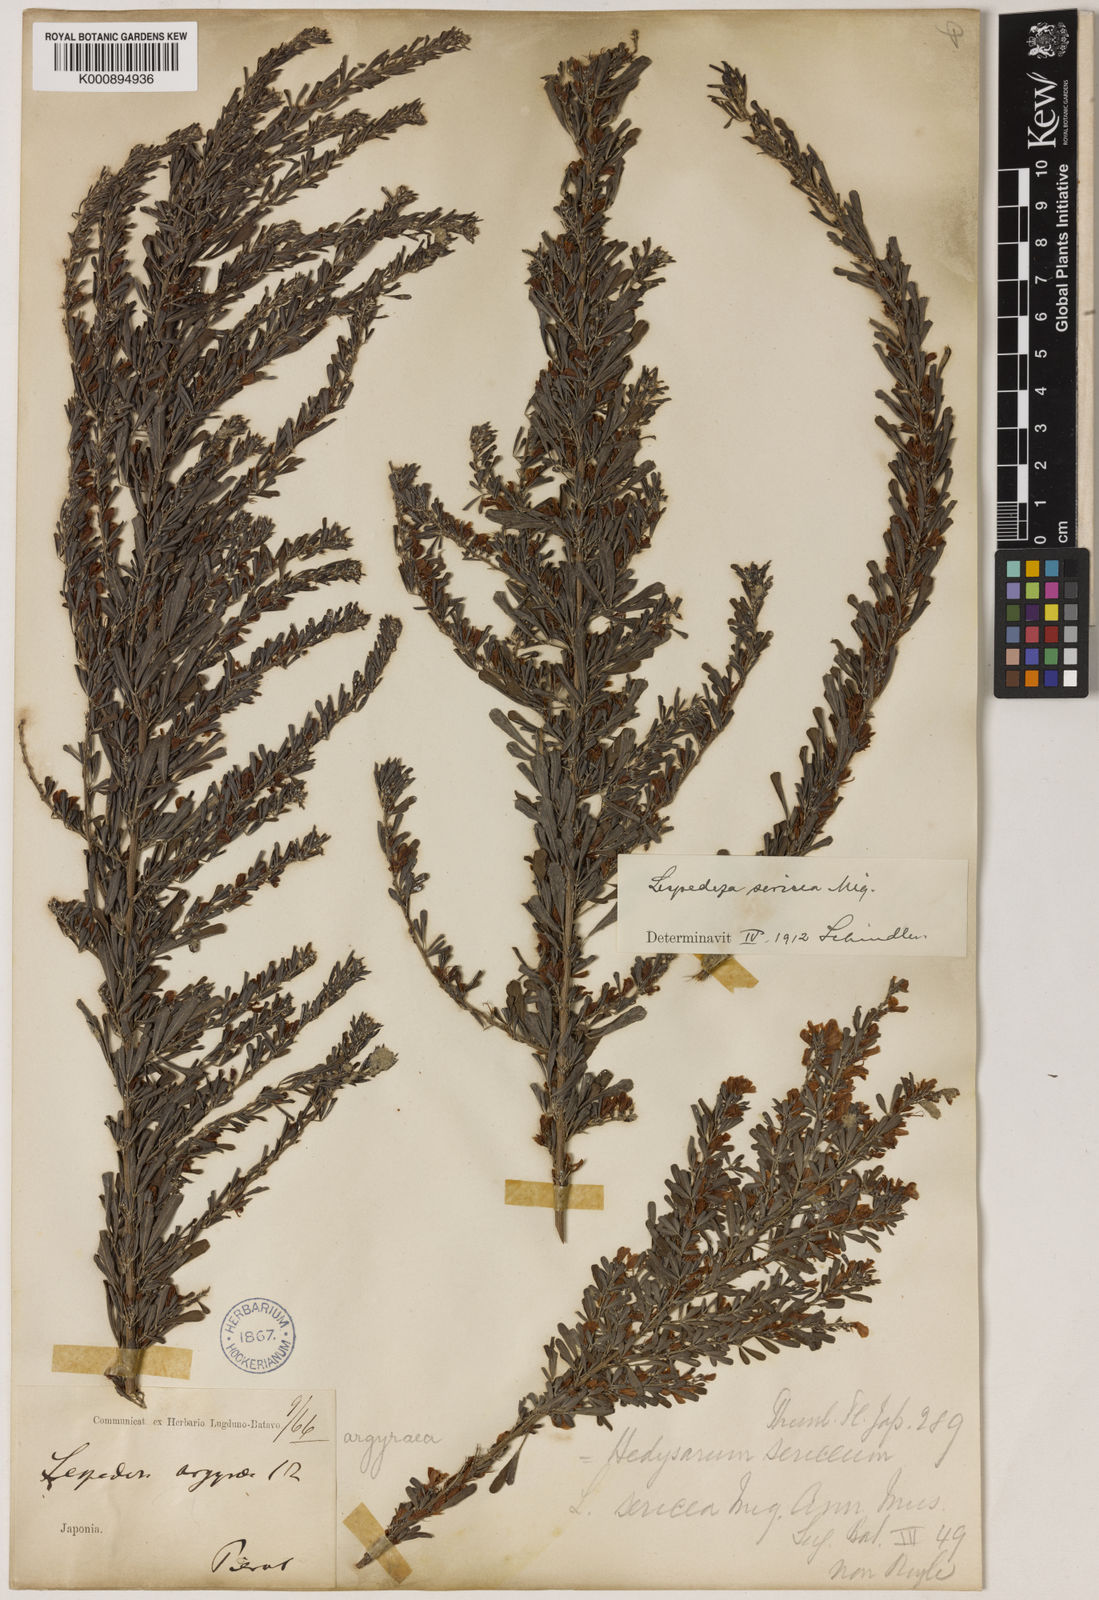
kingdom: Plantae
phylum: Tracheophyta
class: Magnoliopsida
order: Fabales
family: Fabaceae
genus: Lespedeza
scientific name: Lespedeza cuneata
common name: Chinese bush-clover
